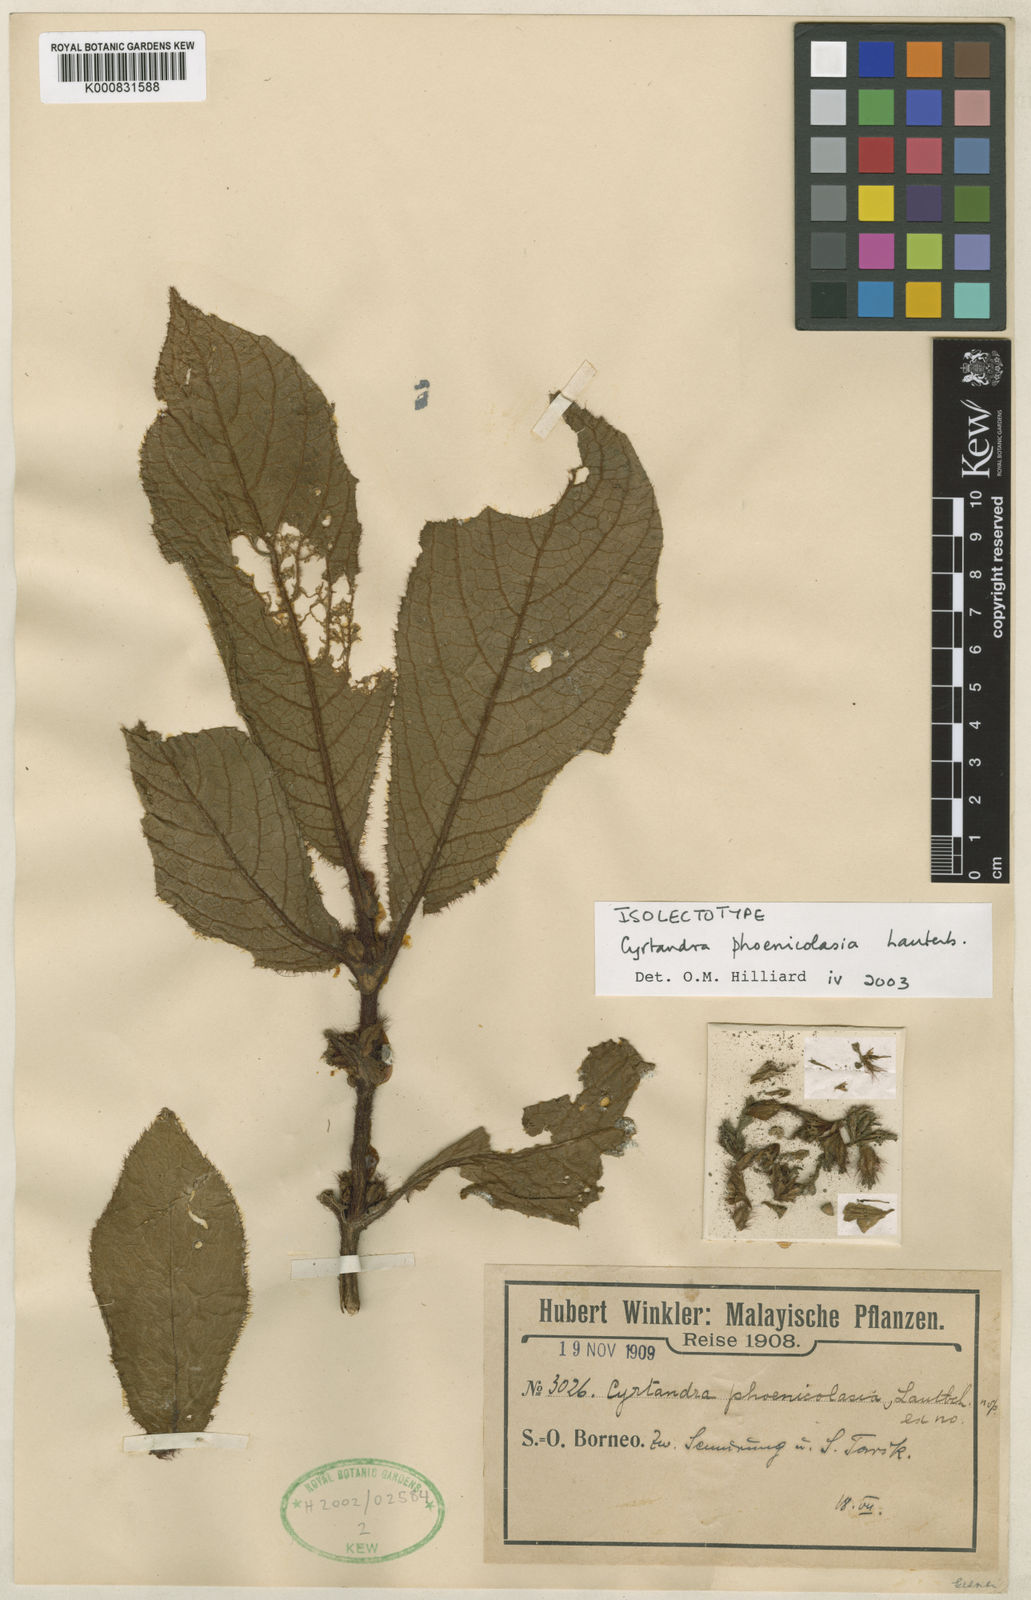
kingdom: Plantae
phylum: Tracheophyta
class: Magnoliopsida
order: Lamiales
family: Gesneriaceae
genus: Cyrtandra
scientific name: Cyrtandra phoenicolasia
